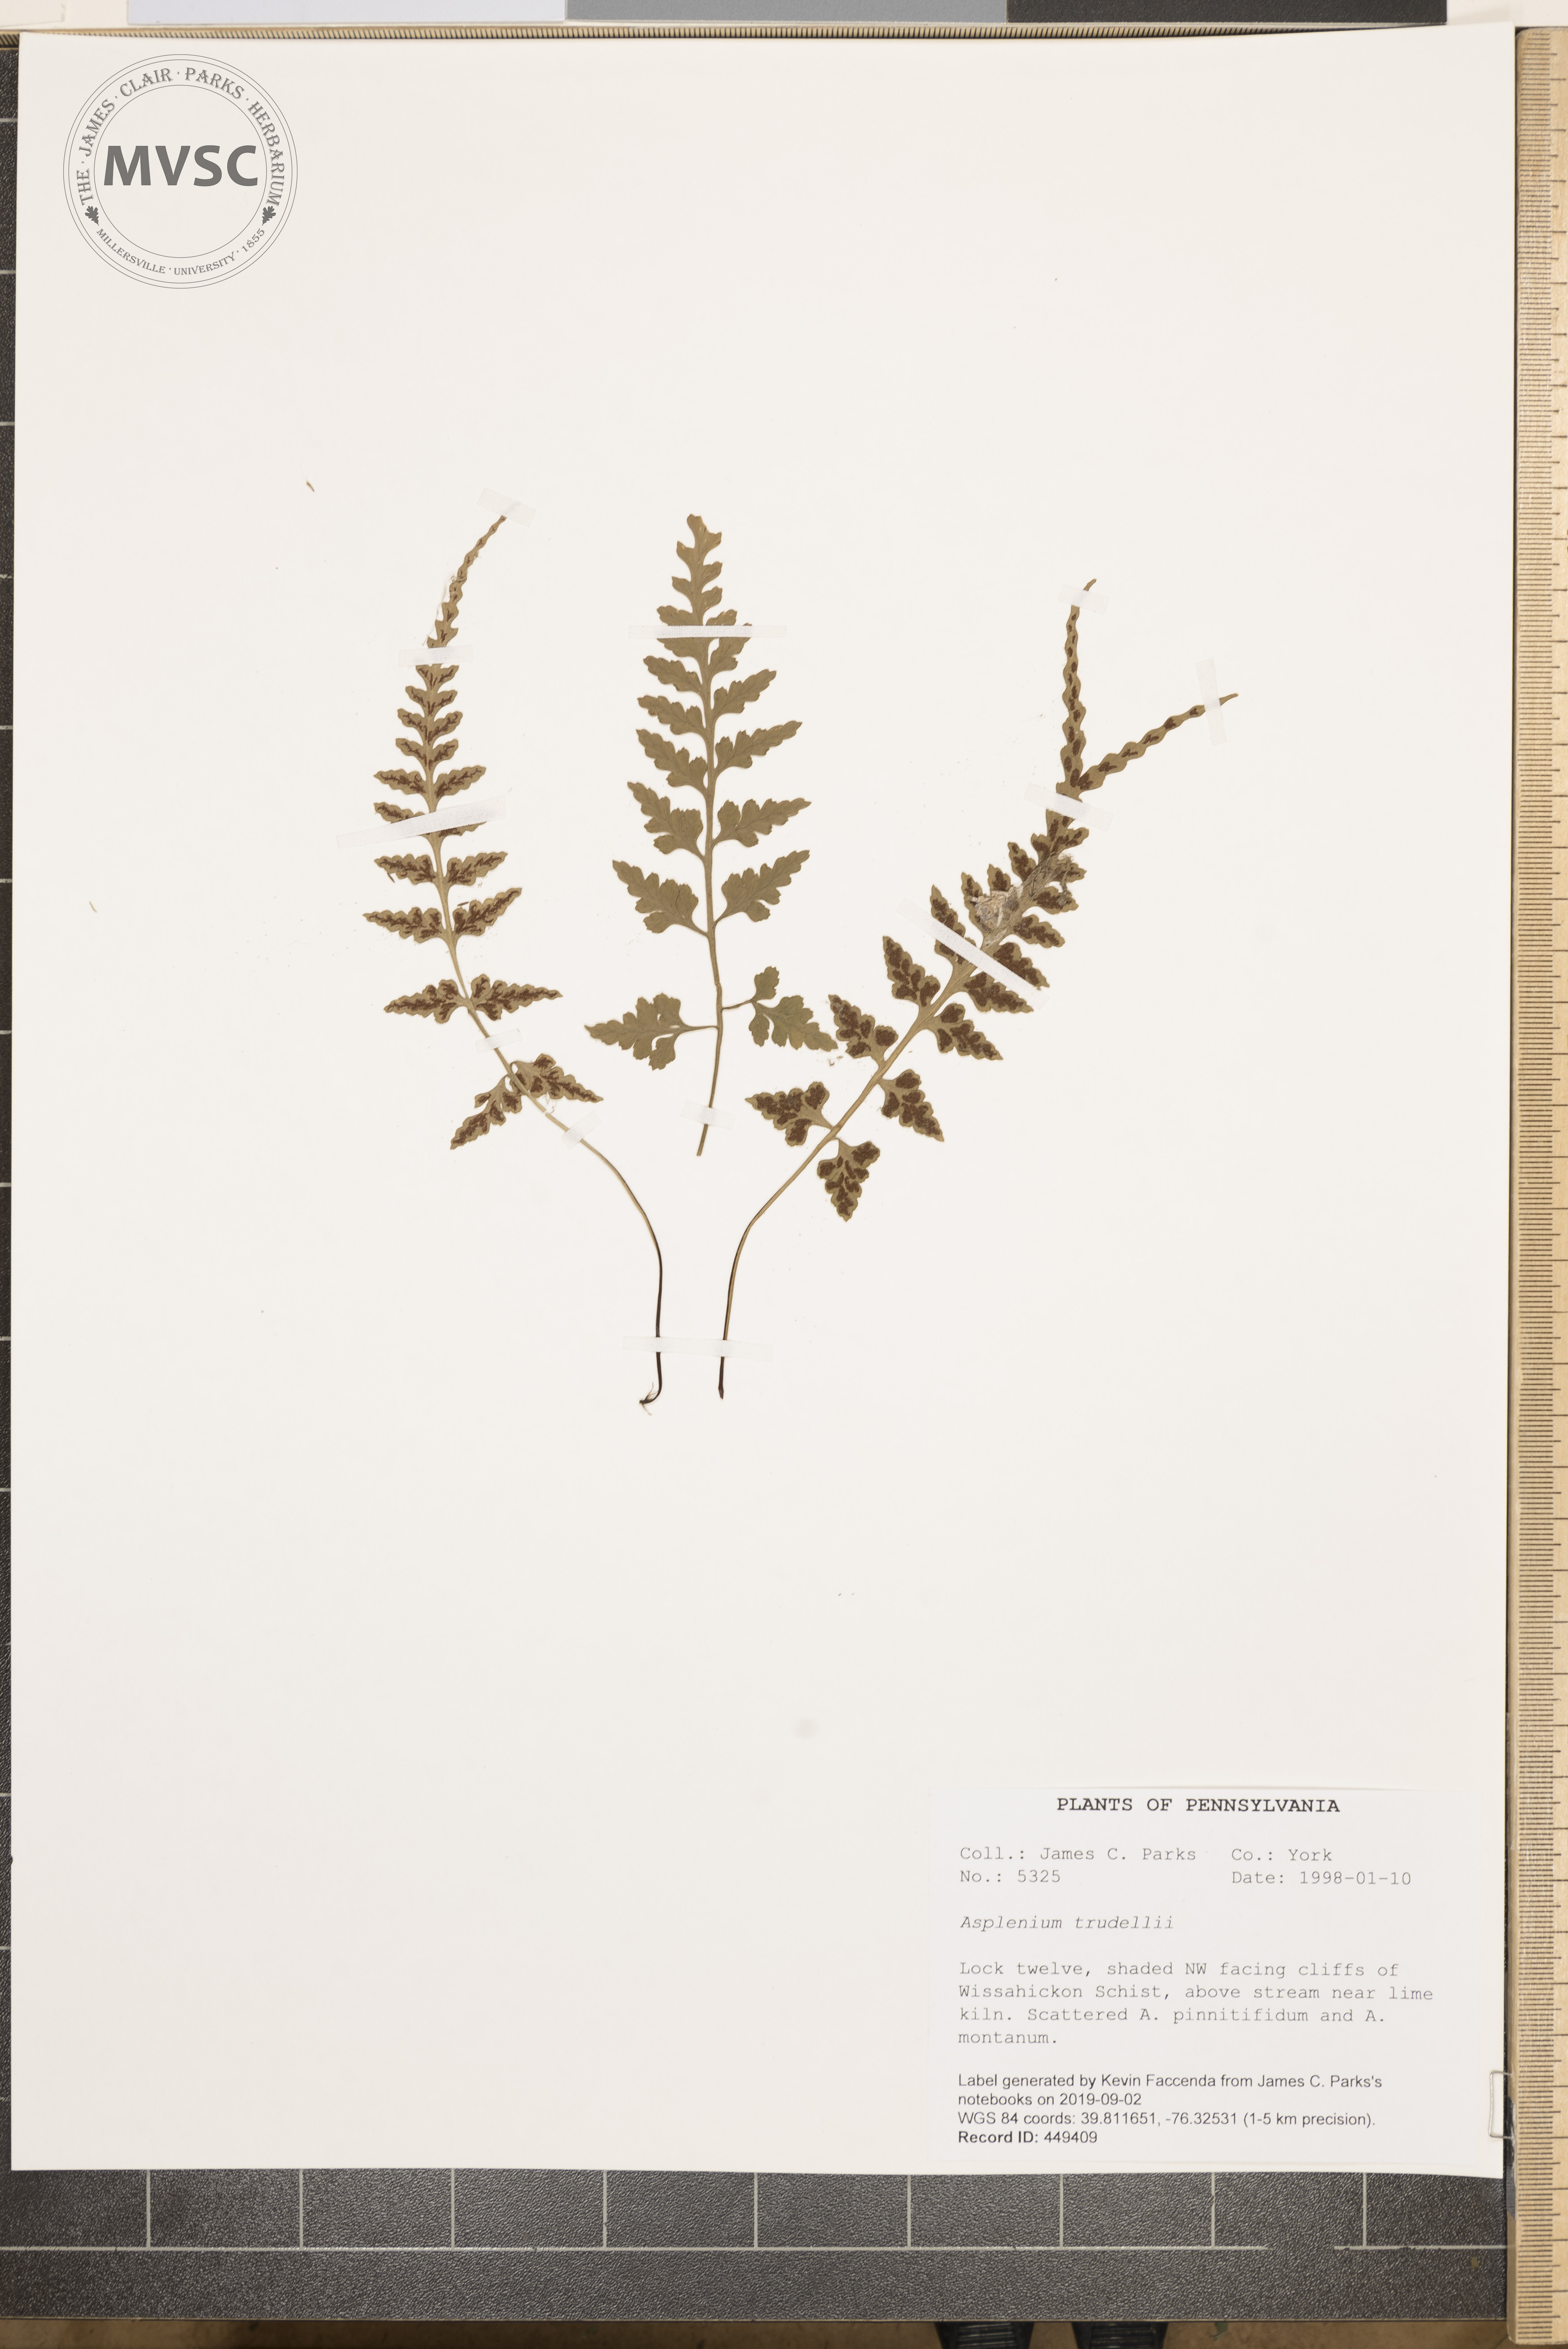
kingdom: Plantae
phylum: Tracheophyta
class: Polypodiopsida
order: Polypodiales
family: Aspleniaceae
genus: Asplenium
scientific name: Asplenium trudellii
